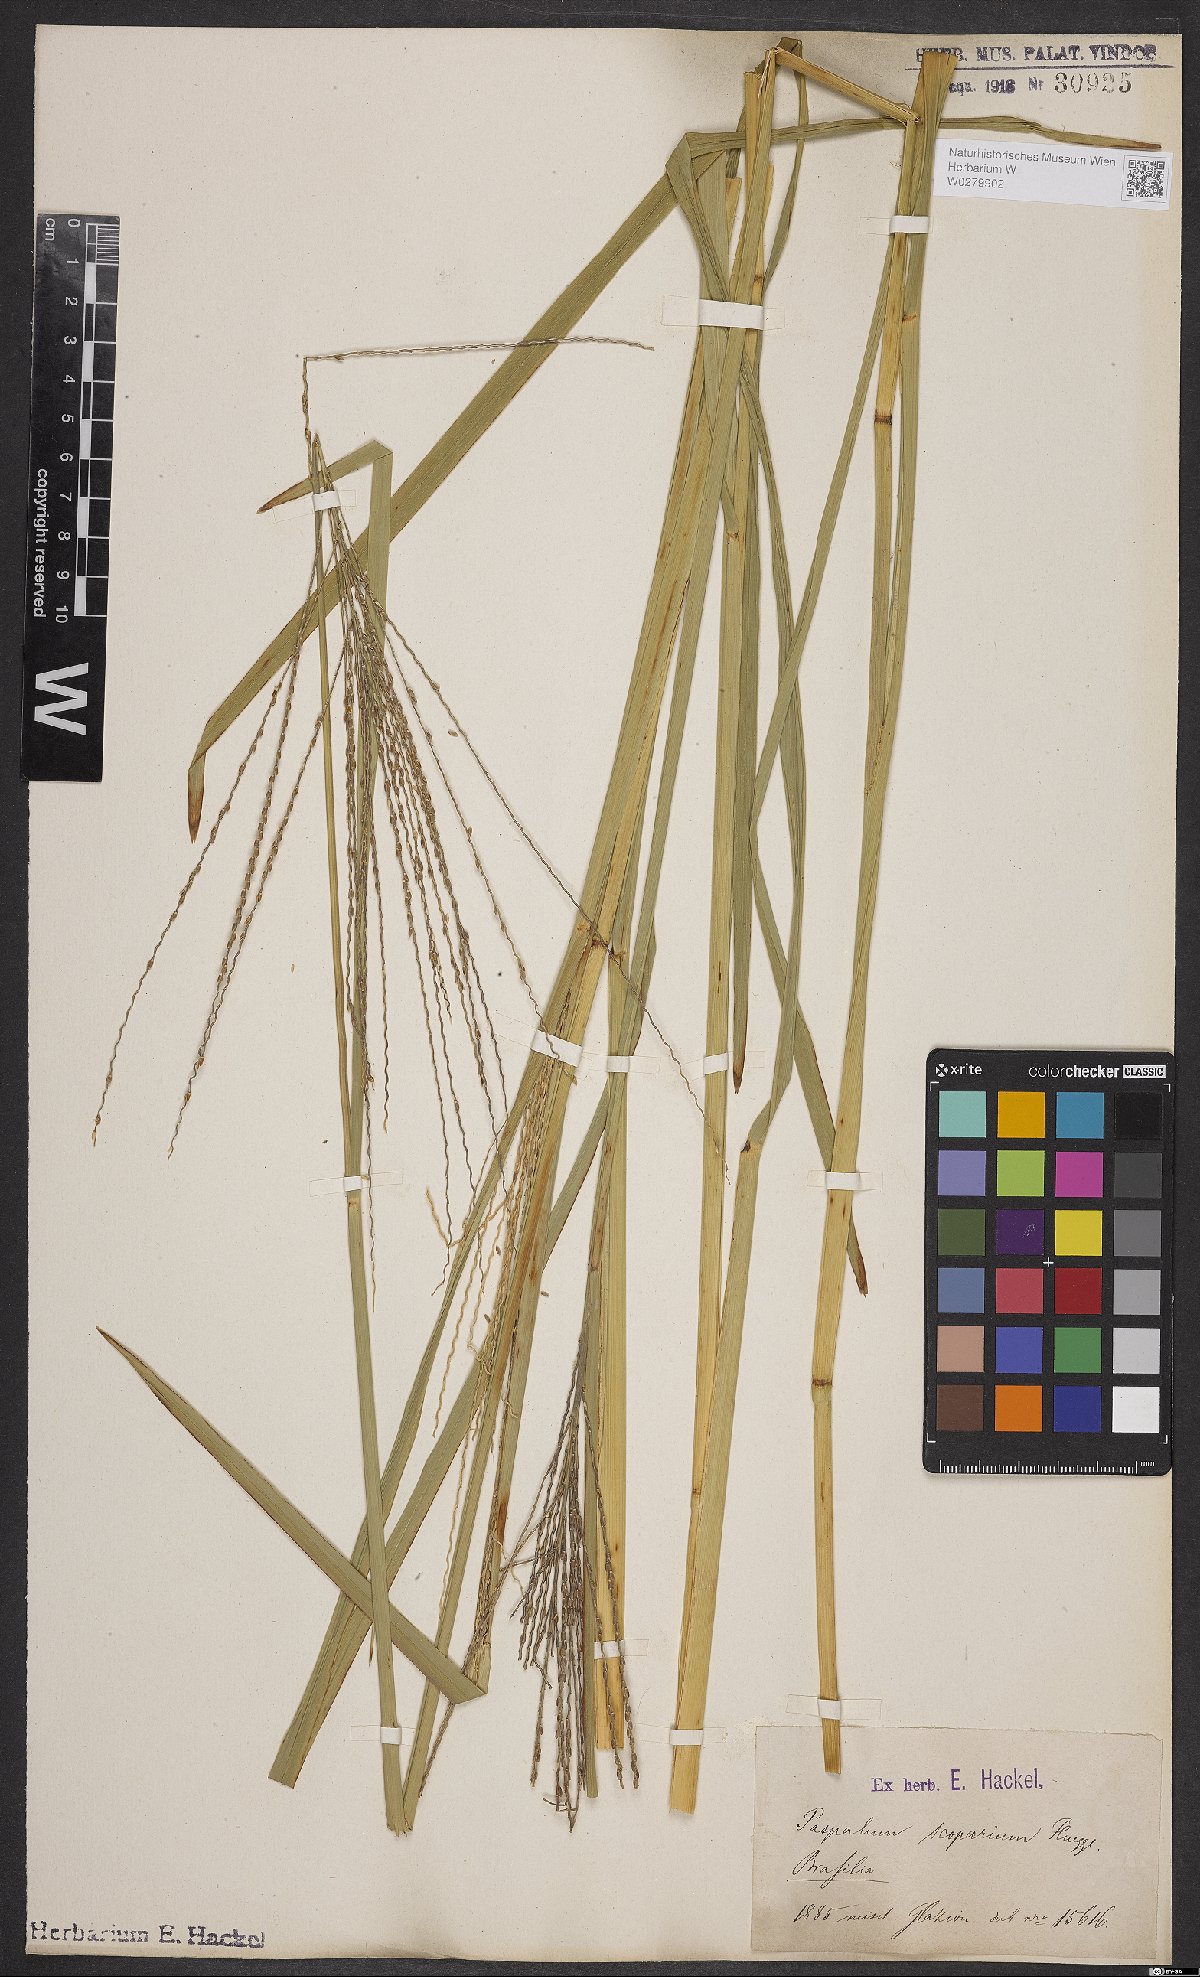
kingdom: Plantae
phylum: Tracheophyta
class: Liliopsida
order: Poales
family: Poaceae
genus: Axonopus
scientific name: Axonopus scoparius
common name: Imperial grass
